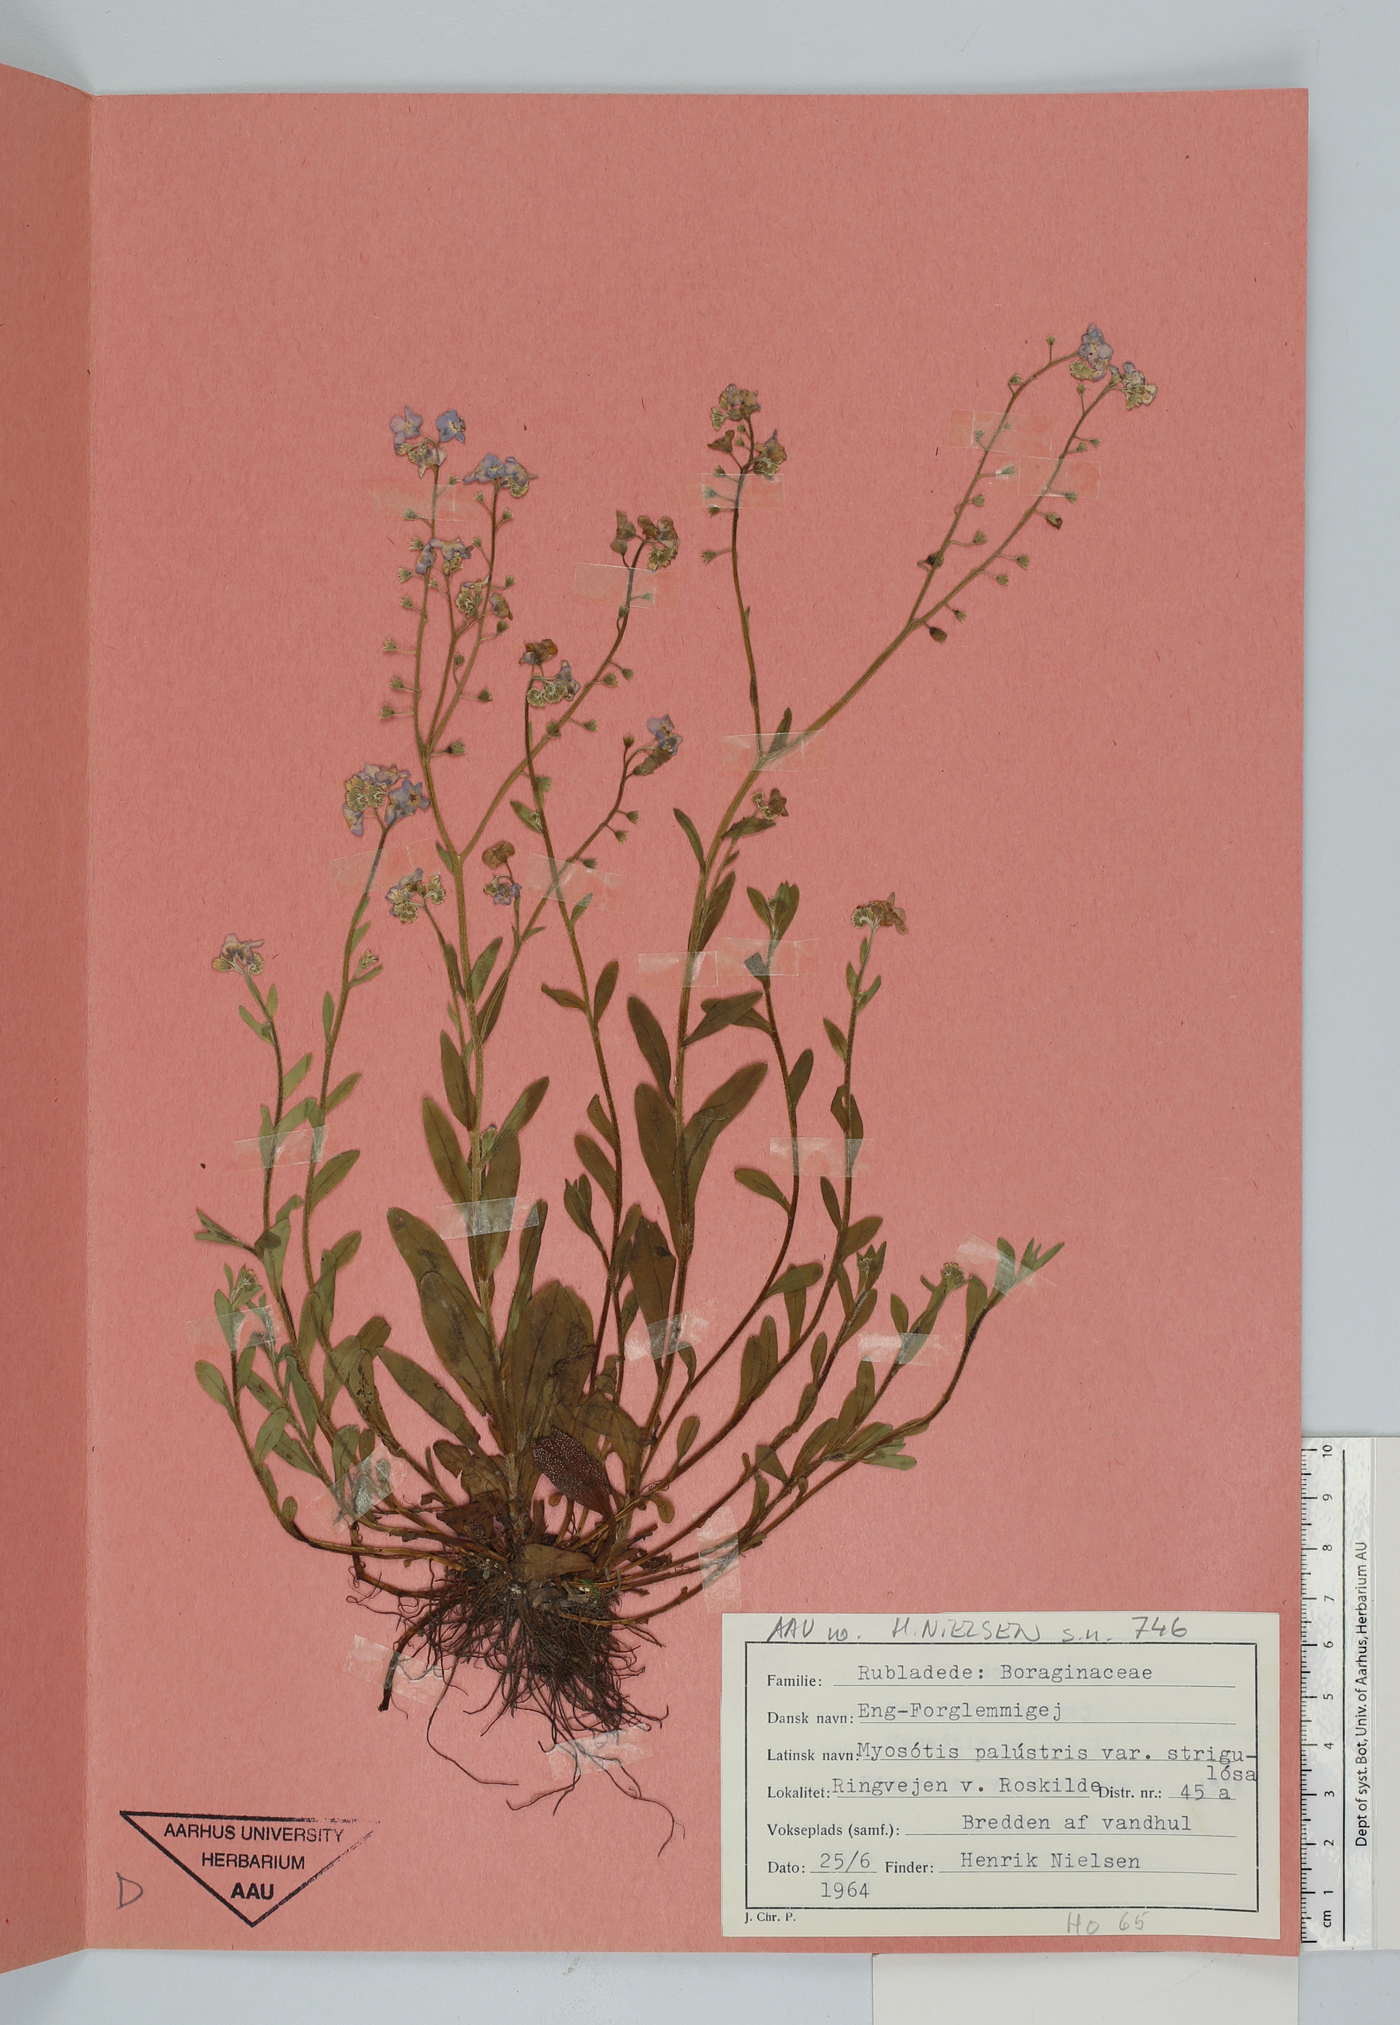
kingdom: Plantae
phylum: Tracheophyta
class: Magnoliopsida
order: Boraginales
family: Boraginaceae
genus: Myosotis
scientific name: Myosotis nemorosa
